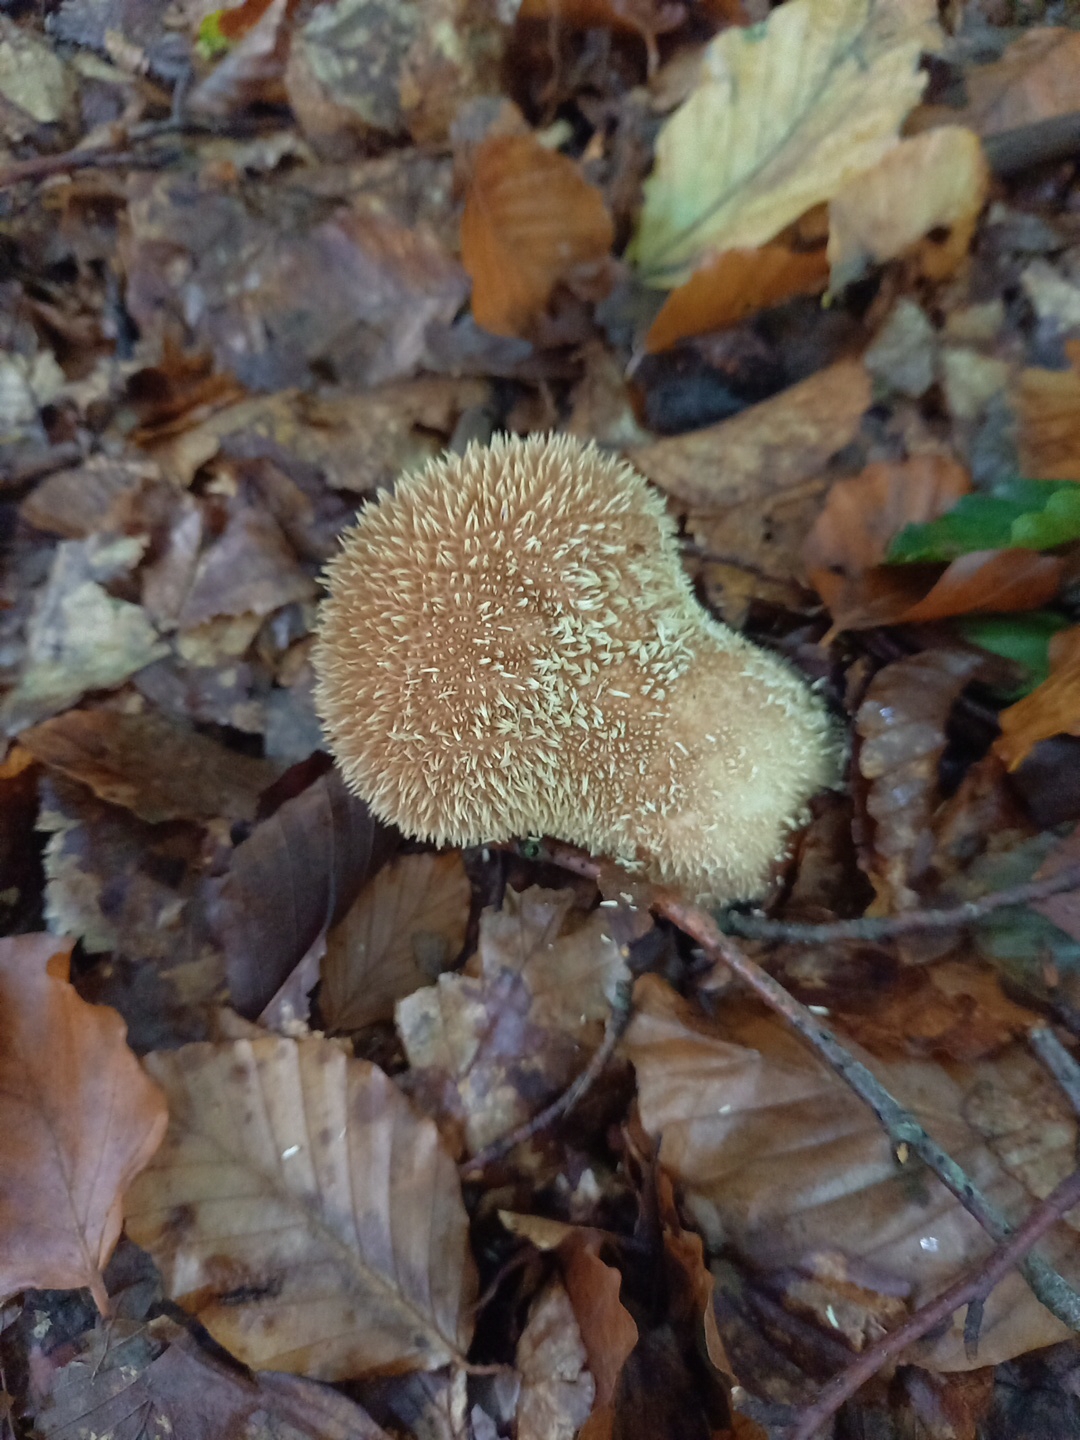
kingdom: Fungi
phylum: Basidiomycota
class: Agaricomycetes
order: Agaricales
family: Lycoperdaceae
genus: Lycoperdon
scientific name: Lycoperdon echinatum
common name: pindsvine-støvbold
